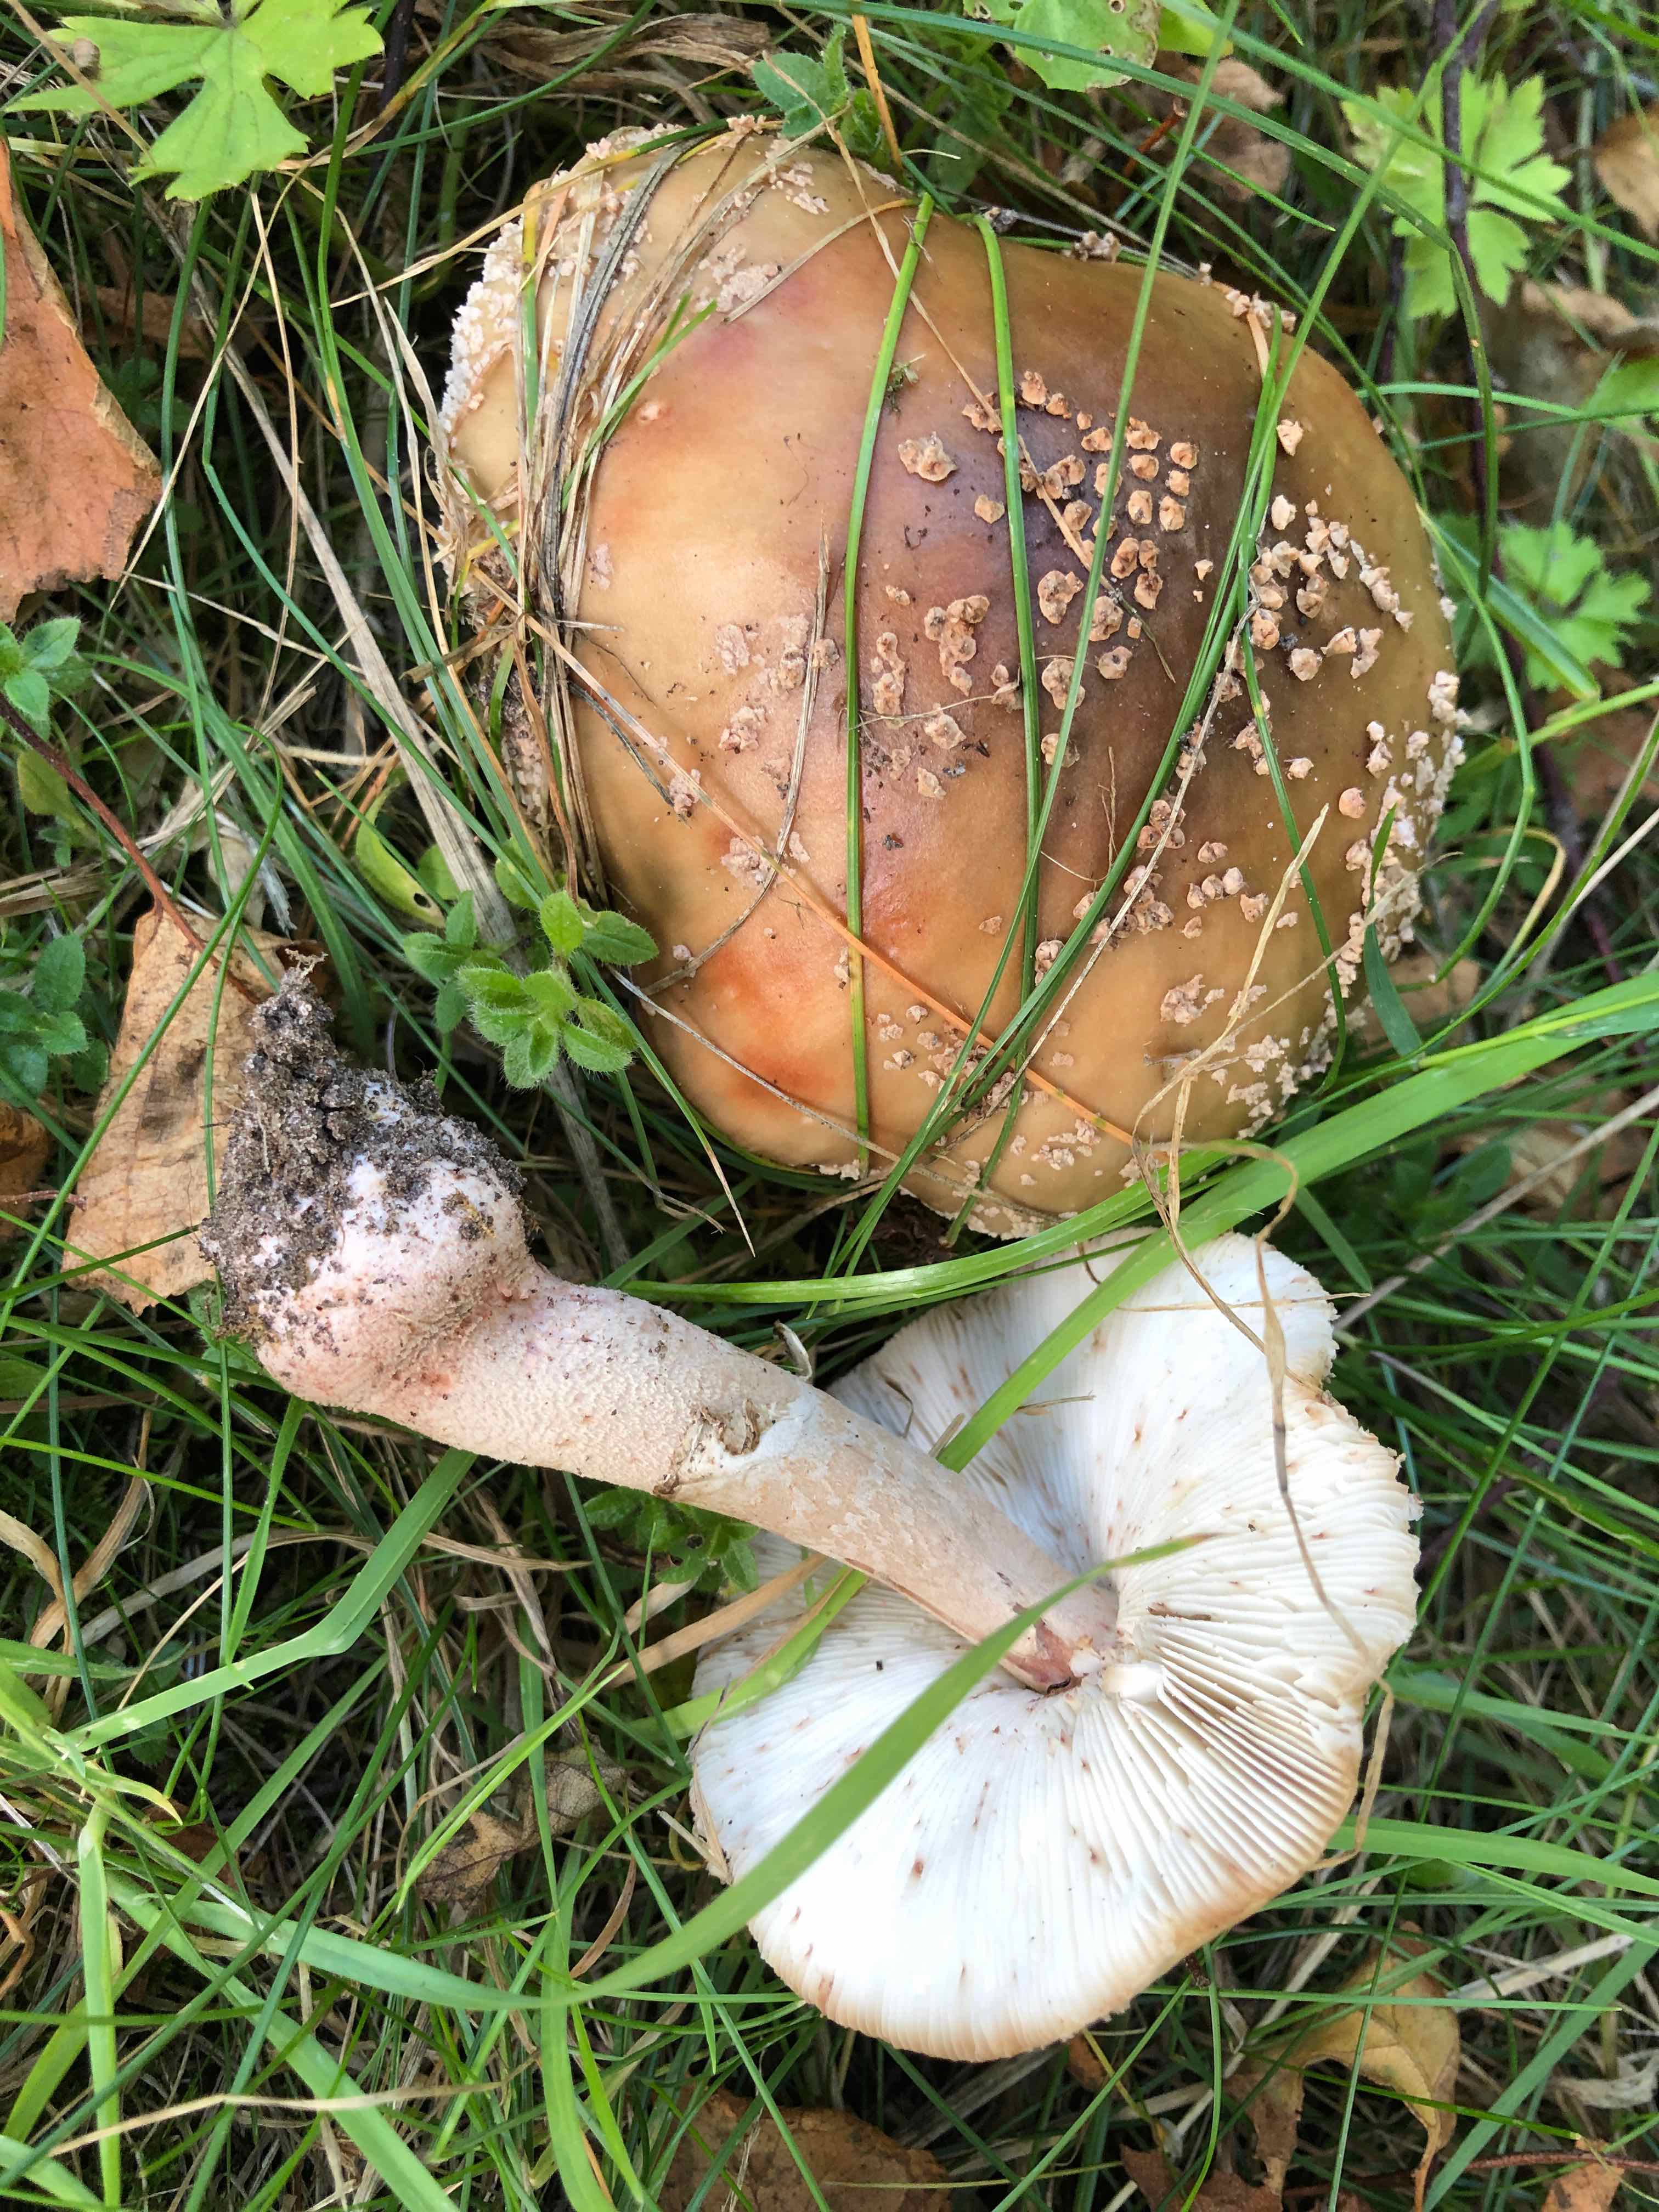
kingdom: Fungi
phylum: Basidiomycota
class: Agaricomycetes
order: Agaricales
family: Amanitaceae
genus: Amanita
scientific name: Amanita rubescens
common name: rødmende fluesvamp
